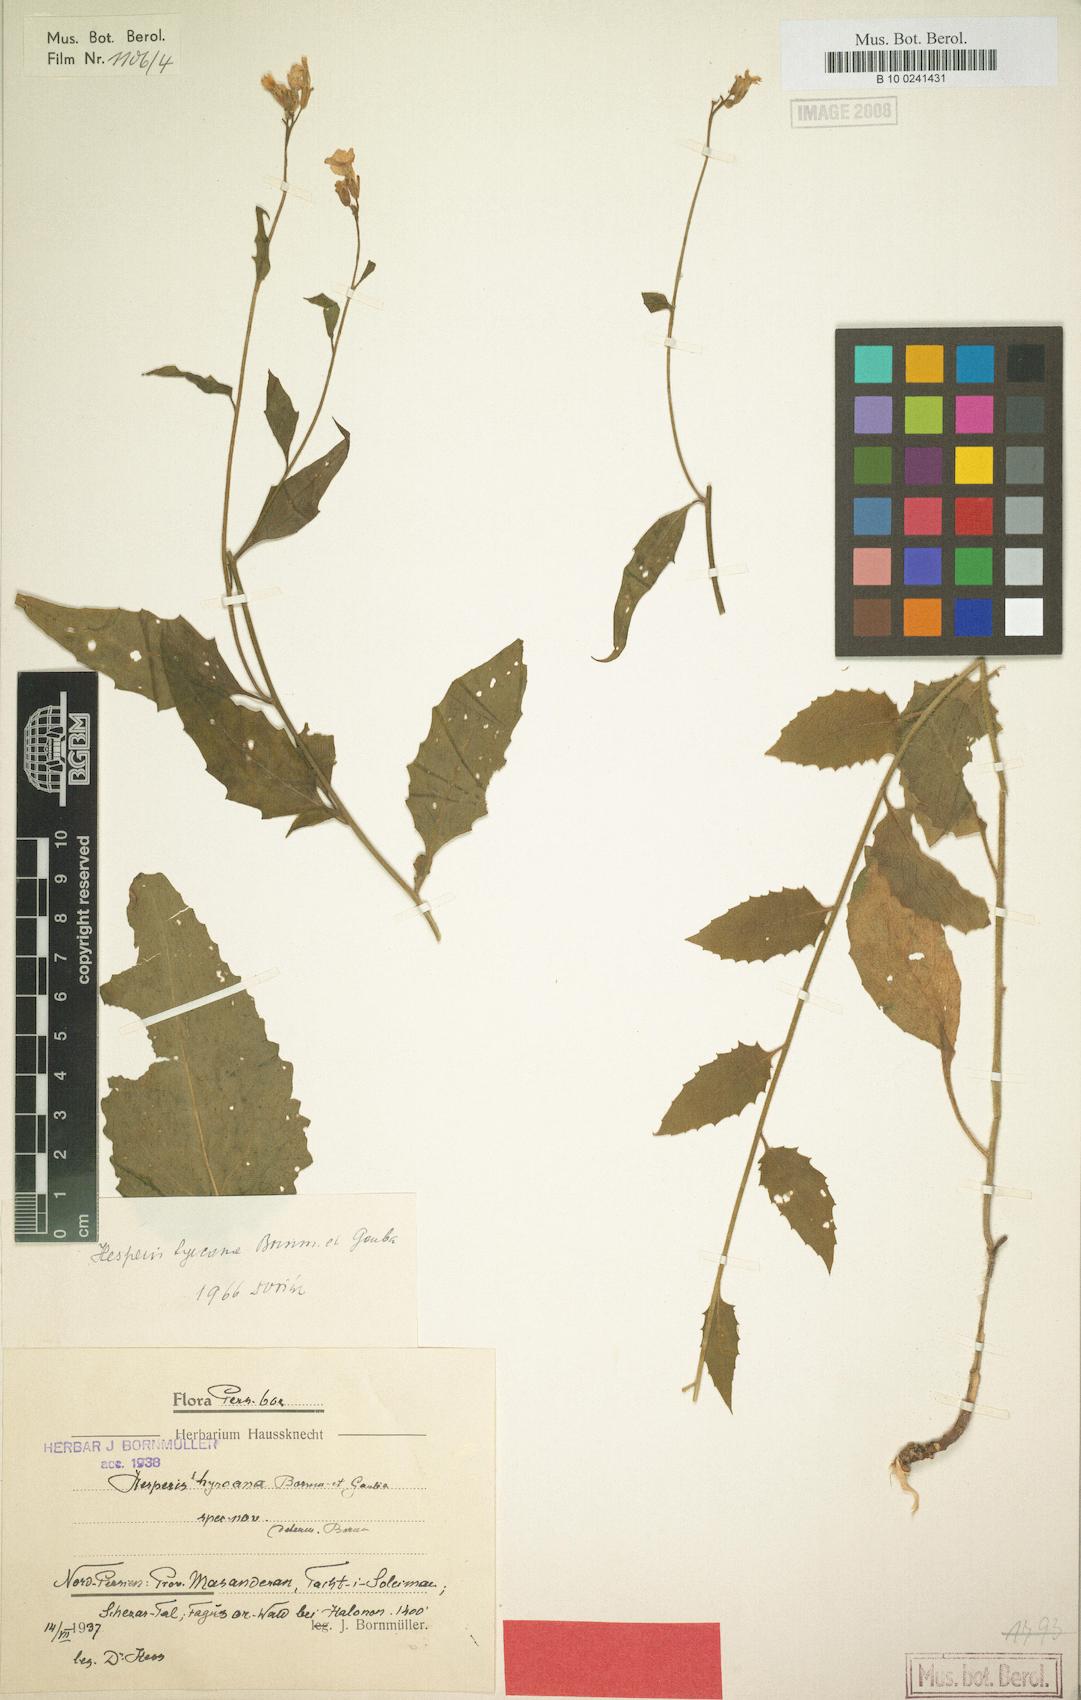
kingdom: Plantae
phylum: Tracheophyta
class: Magnoliopsida
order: Brassicales
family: Brassicaceae
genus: Hesperis
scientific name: Hesperis hyrcana
